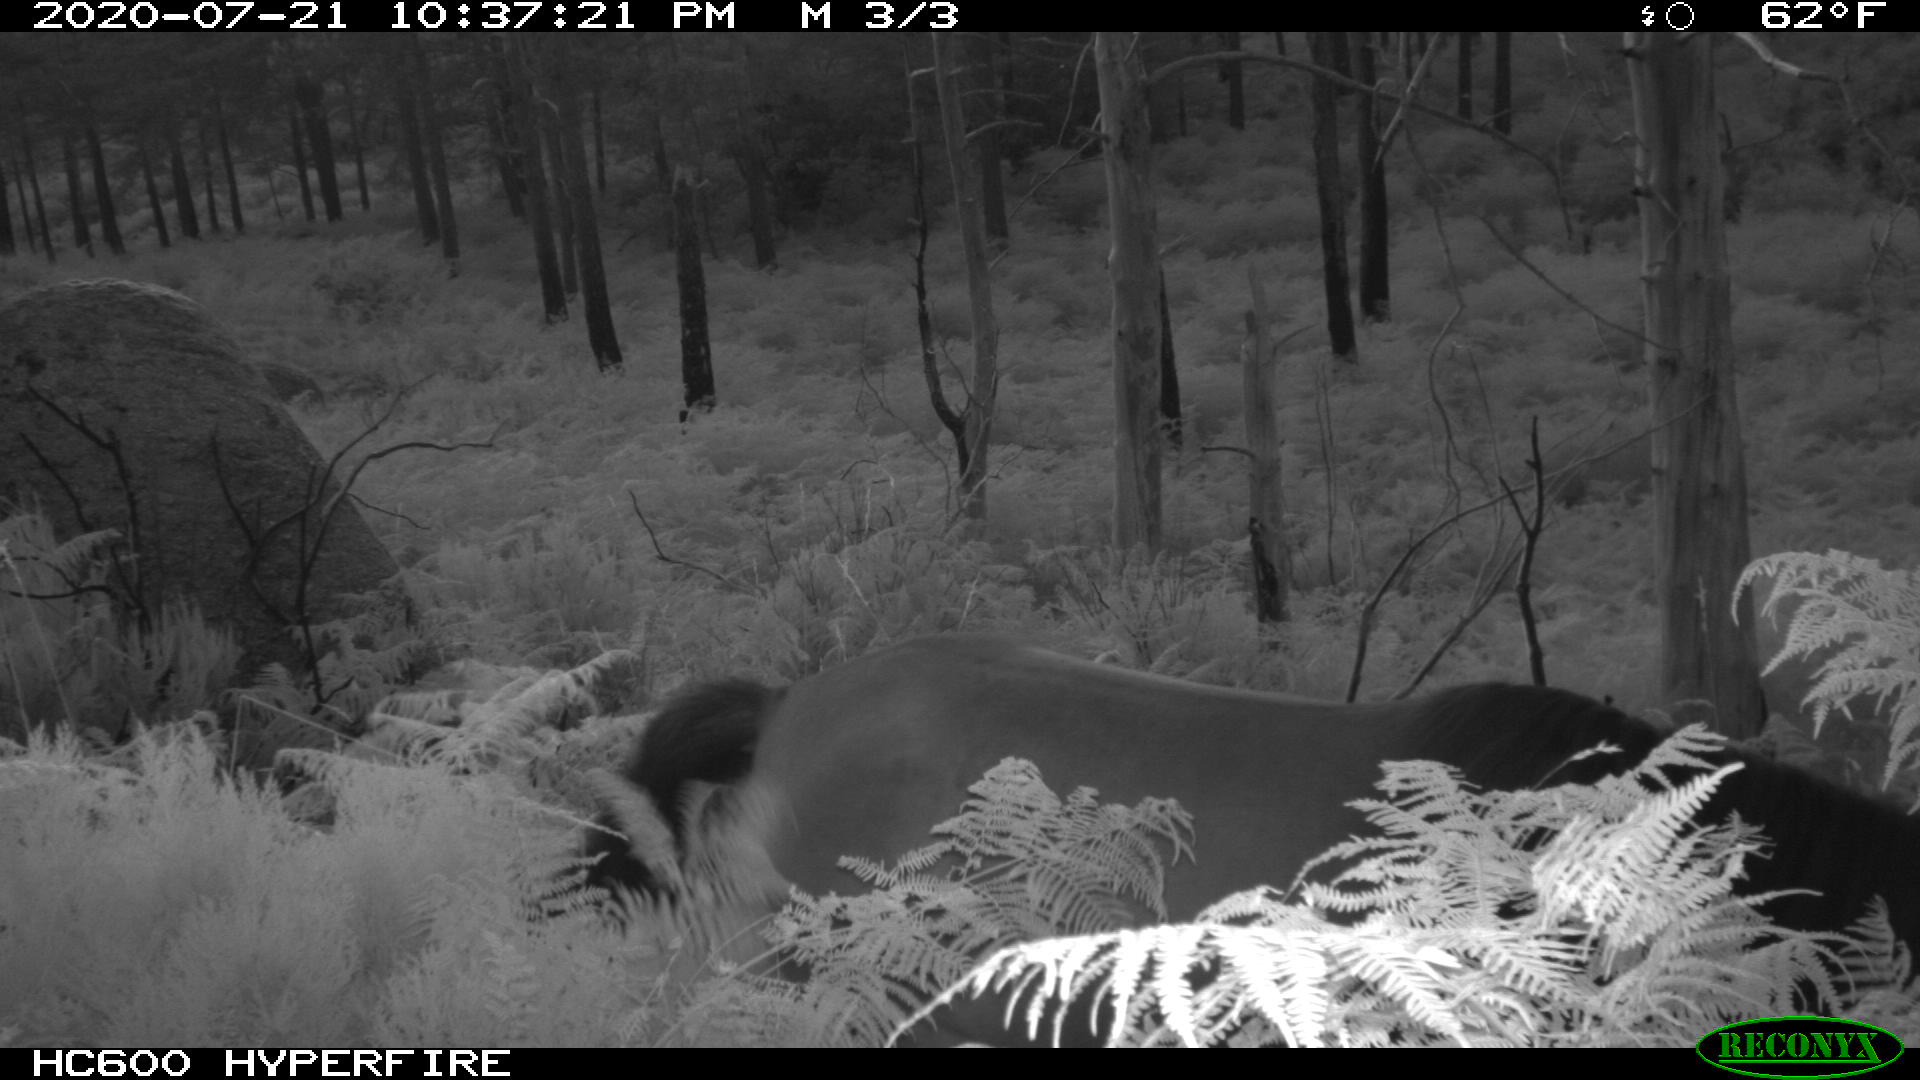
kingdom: Animalia
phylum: Chordata
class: Mammalia
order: Perissodactyla
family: Equidae
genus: Equus
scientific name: Equus caballus
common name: Horse
